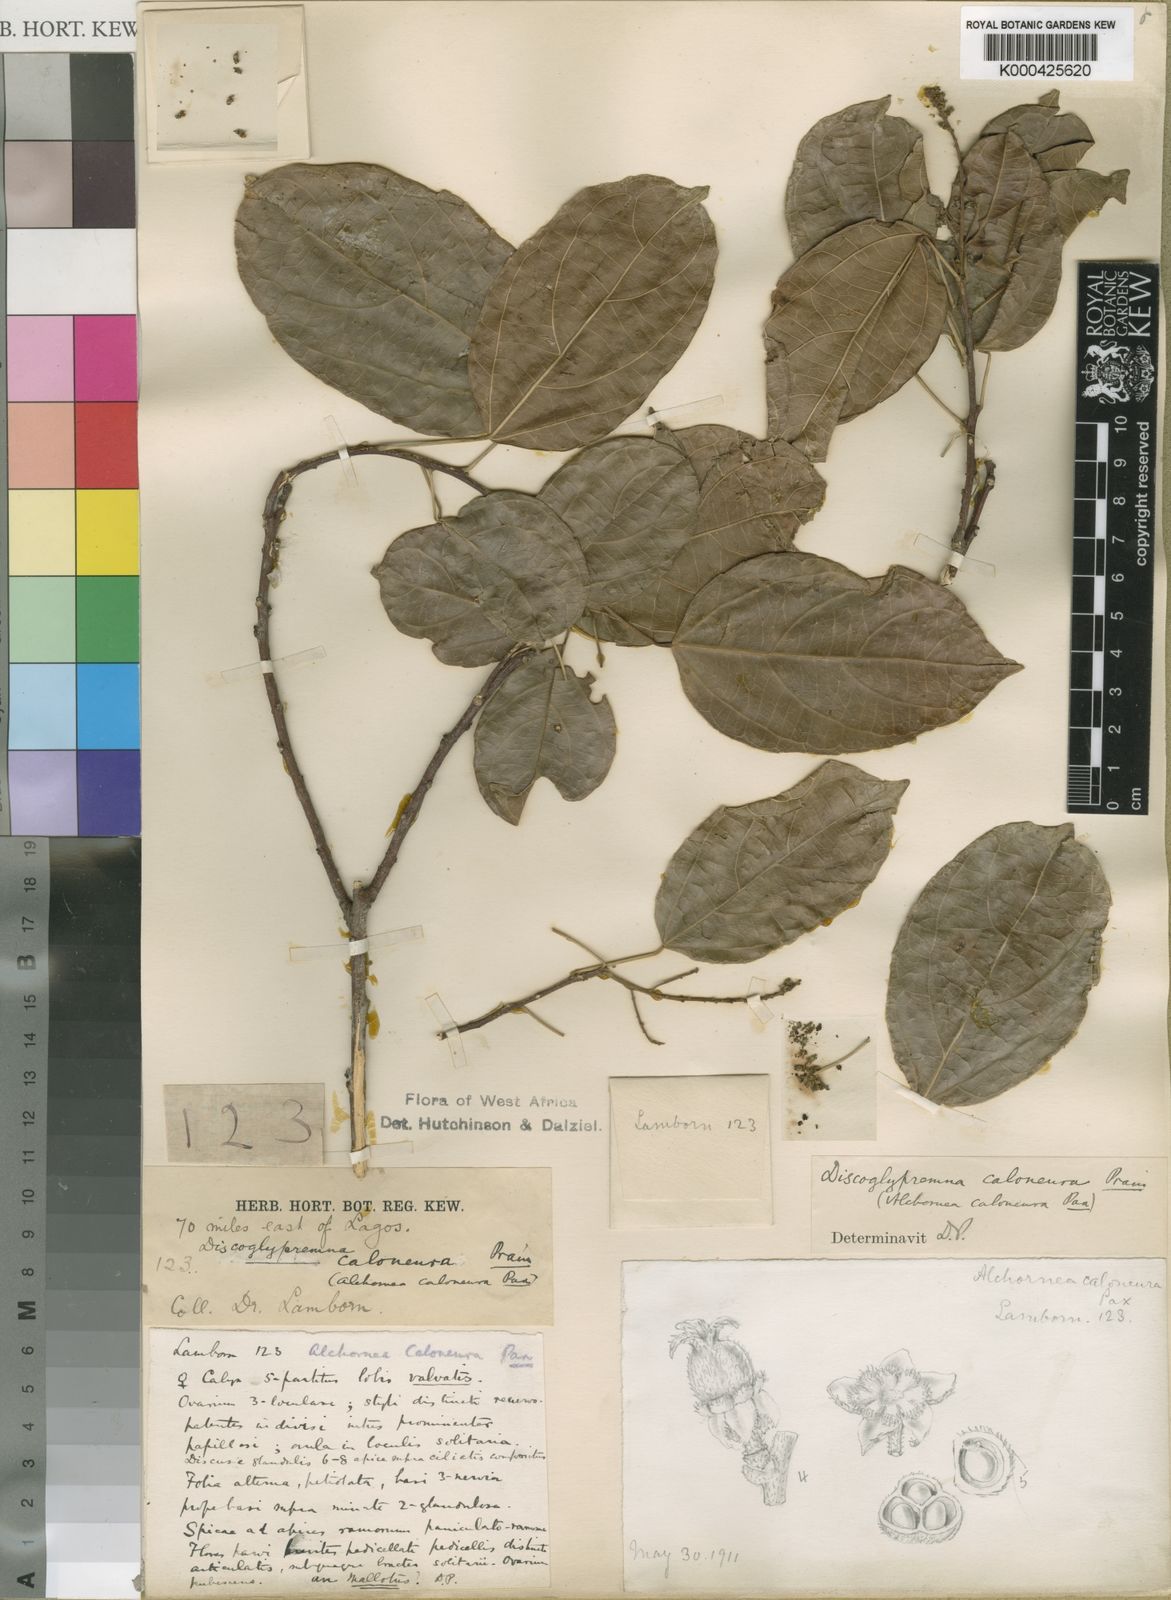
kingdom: Plantae
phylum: Tracheophyta
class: Magnoliopsida
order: Malpighiales
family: Euphorbiaceae
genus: Discoglypremna
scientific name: Discoglypremna caloneura
